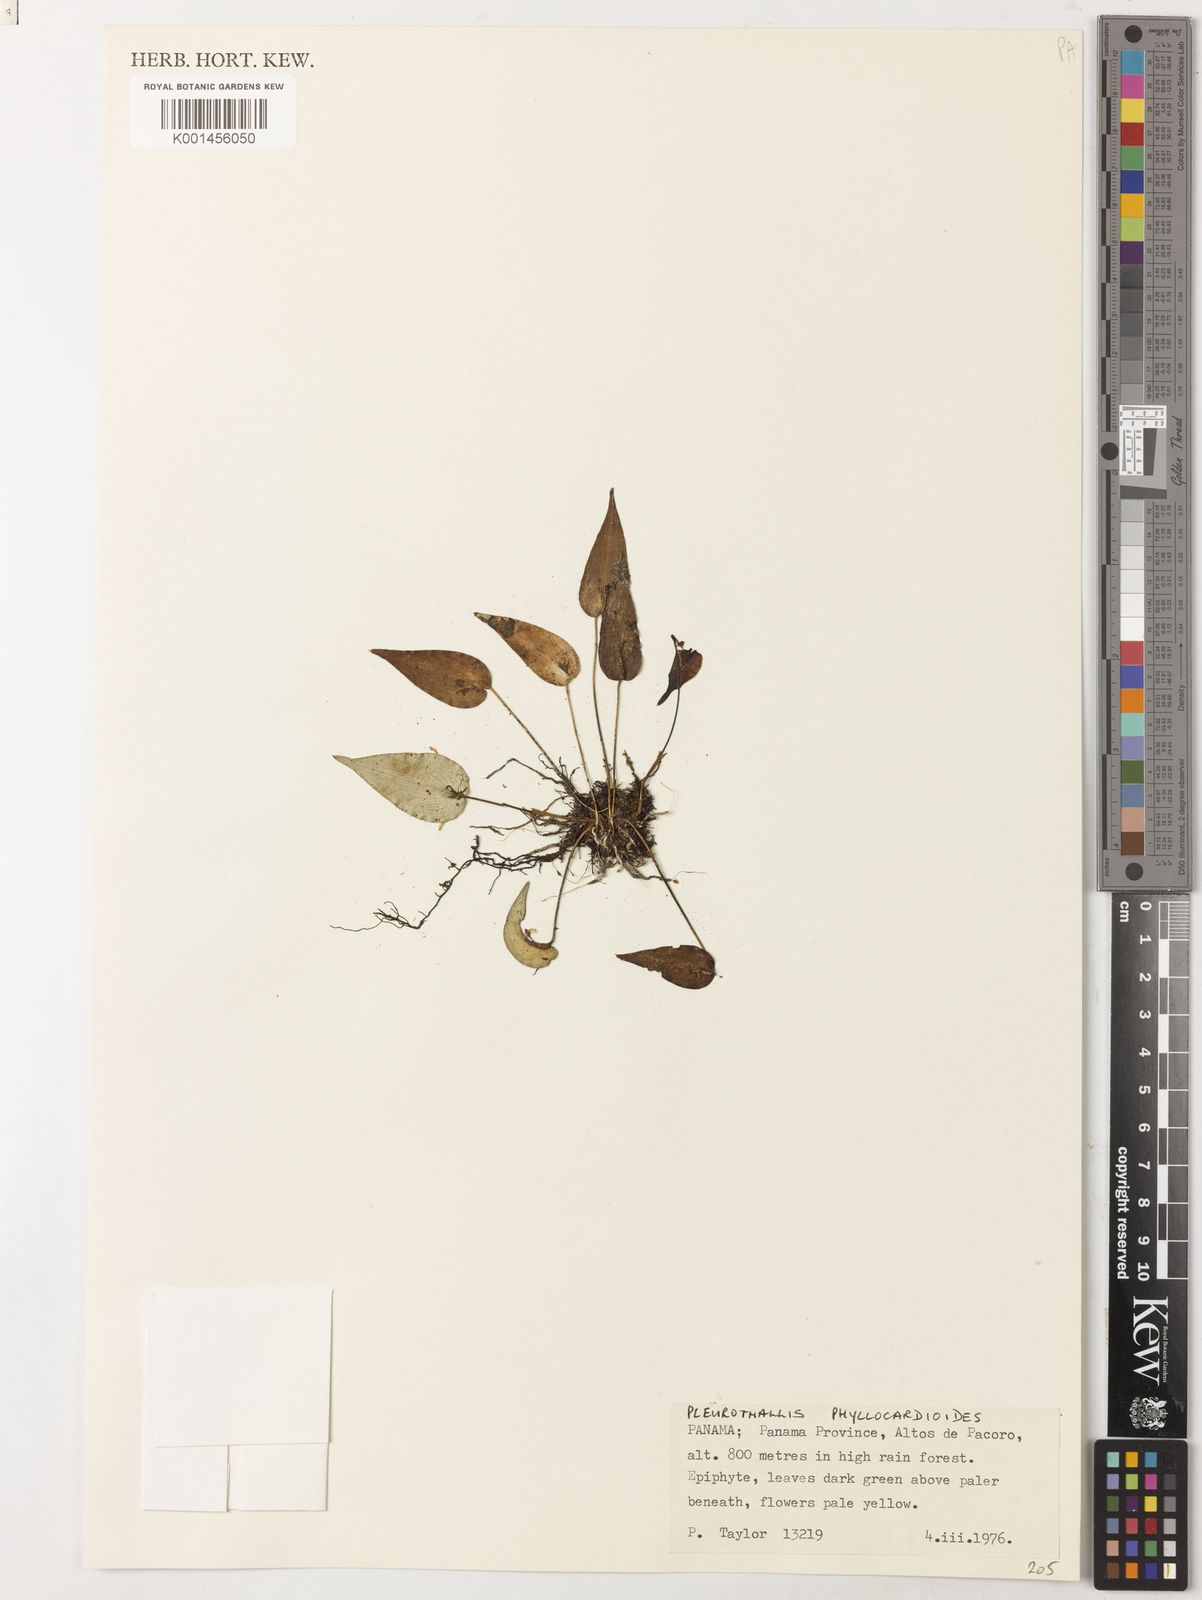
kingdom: Plantae
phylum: Tracheophyta
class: Liliopsida
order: Asparagales
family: Orchidaceae
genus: Pleurothallis
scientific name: Pleurothallis phyllocardioides
